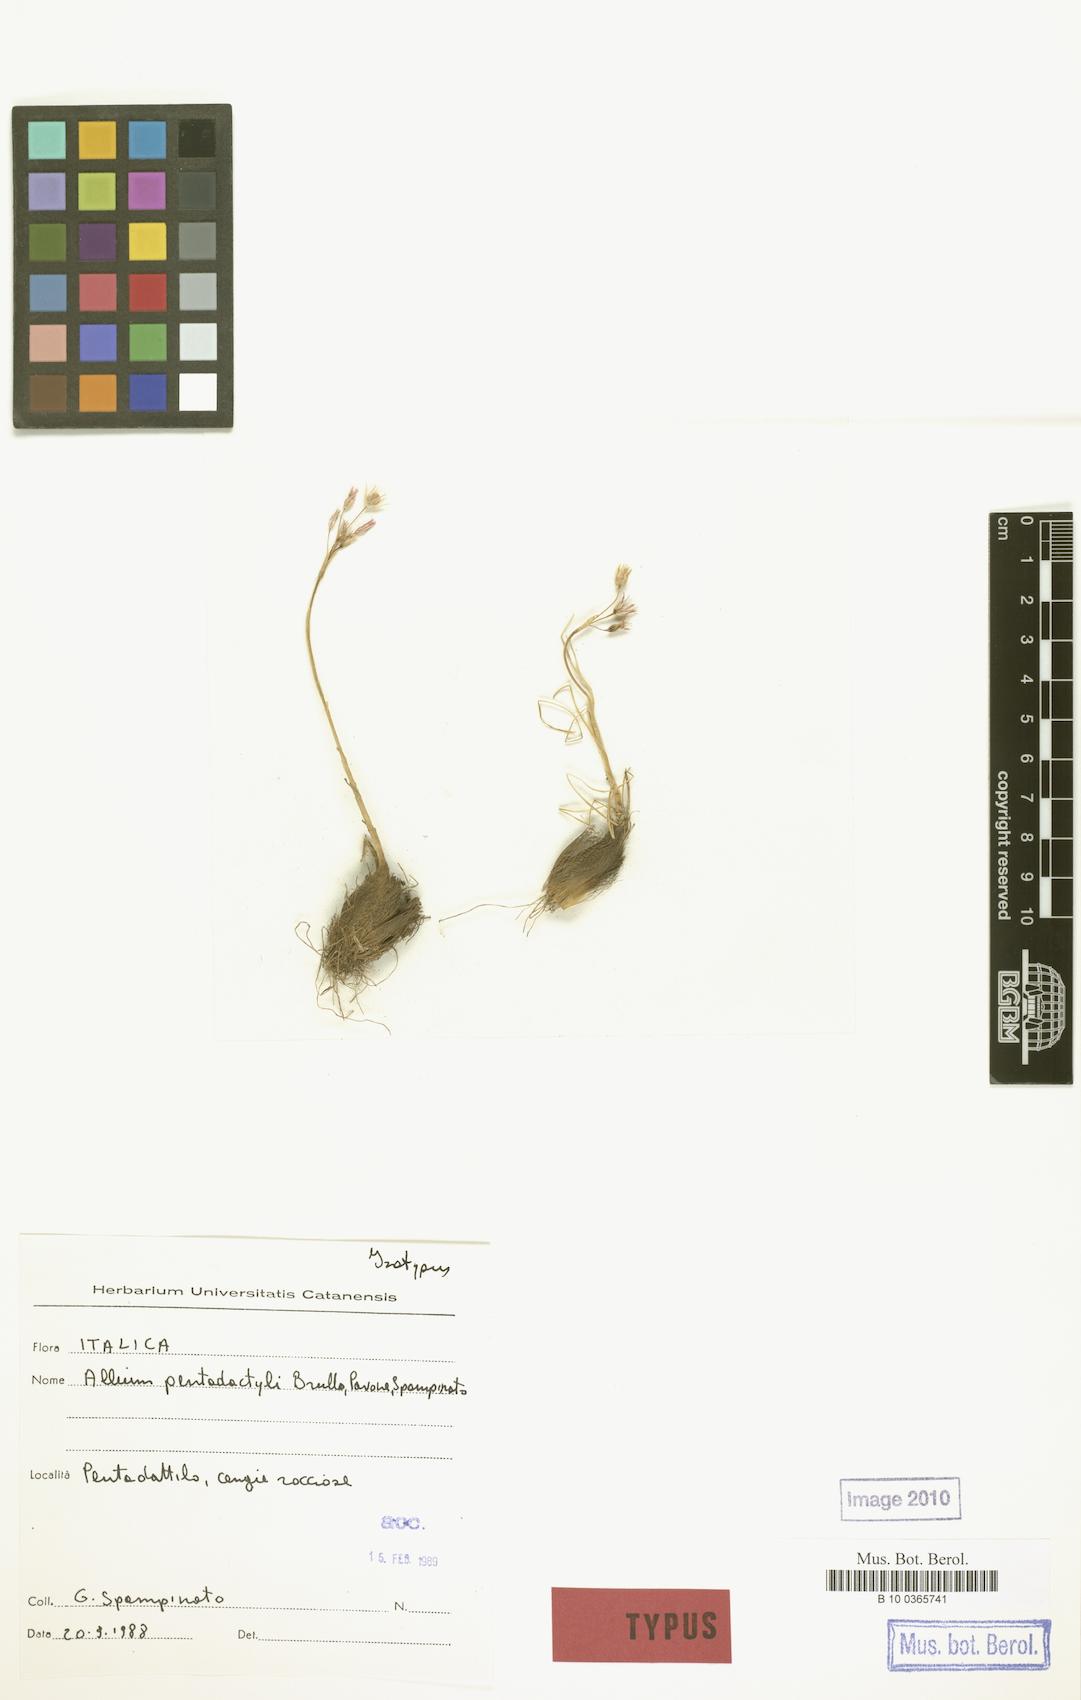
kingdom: Plantae
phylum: Tracheophyta
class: Liliopsida
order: Asparagales
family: Amaryllidaceae
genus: Allium
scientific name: Allium pentadactyli
